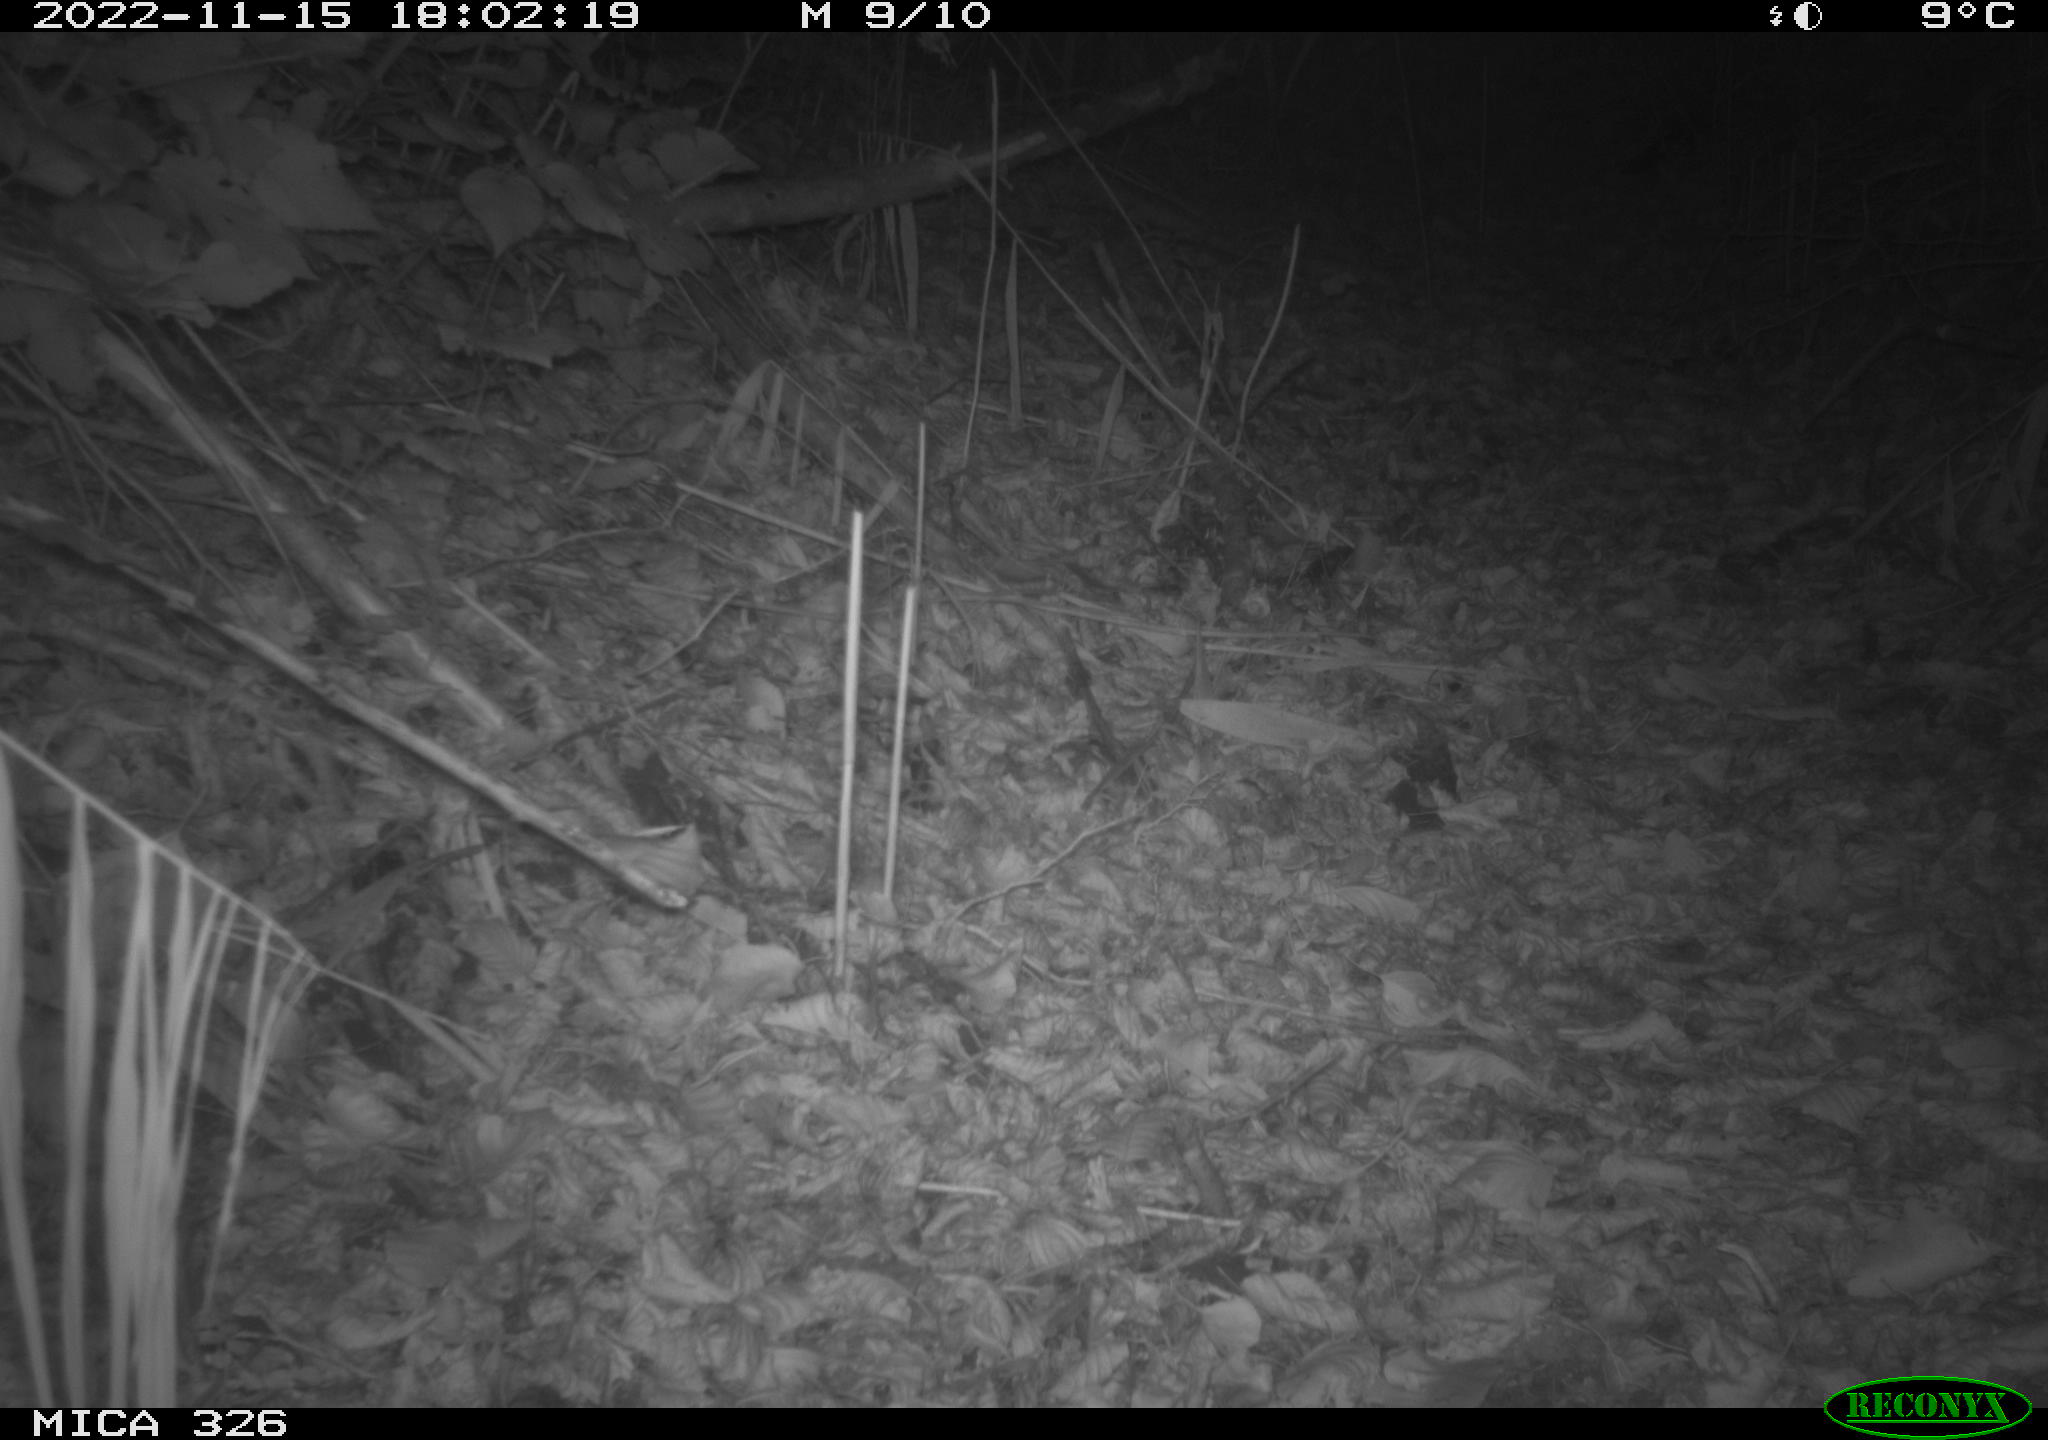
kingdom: Animalia
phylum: Chordata
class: Mammalia
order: Lagomorpha
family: Leporidae
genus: Lepus
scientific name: Lepus europaeus
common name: European hare
